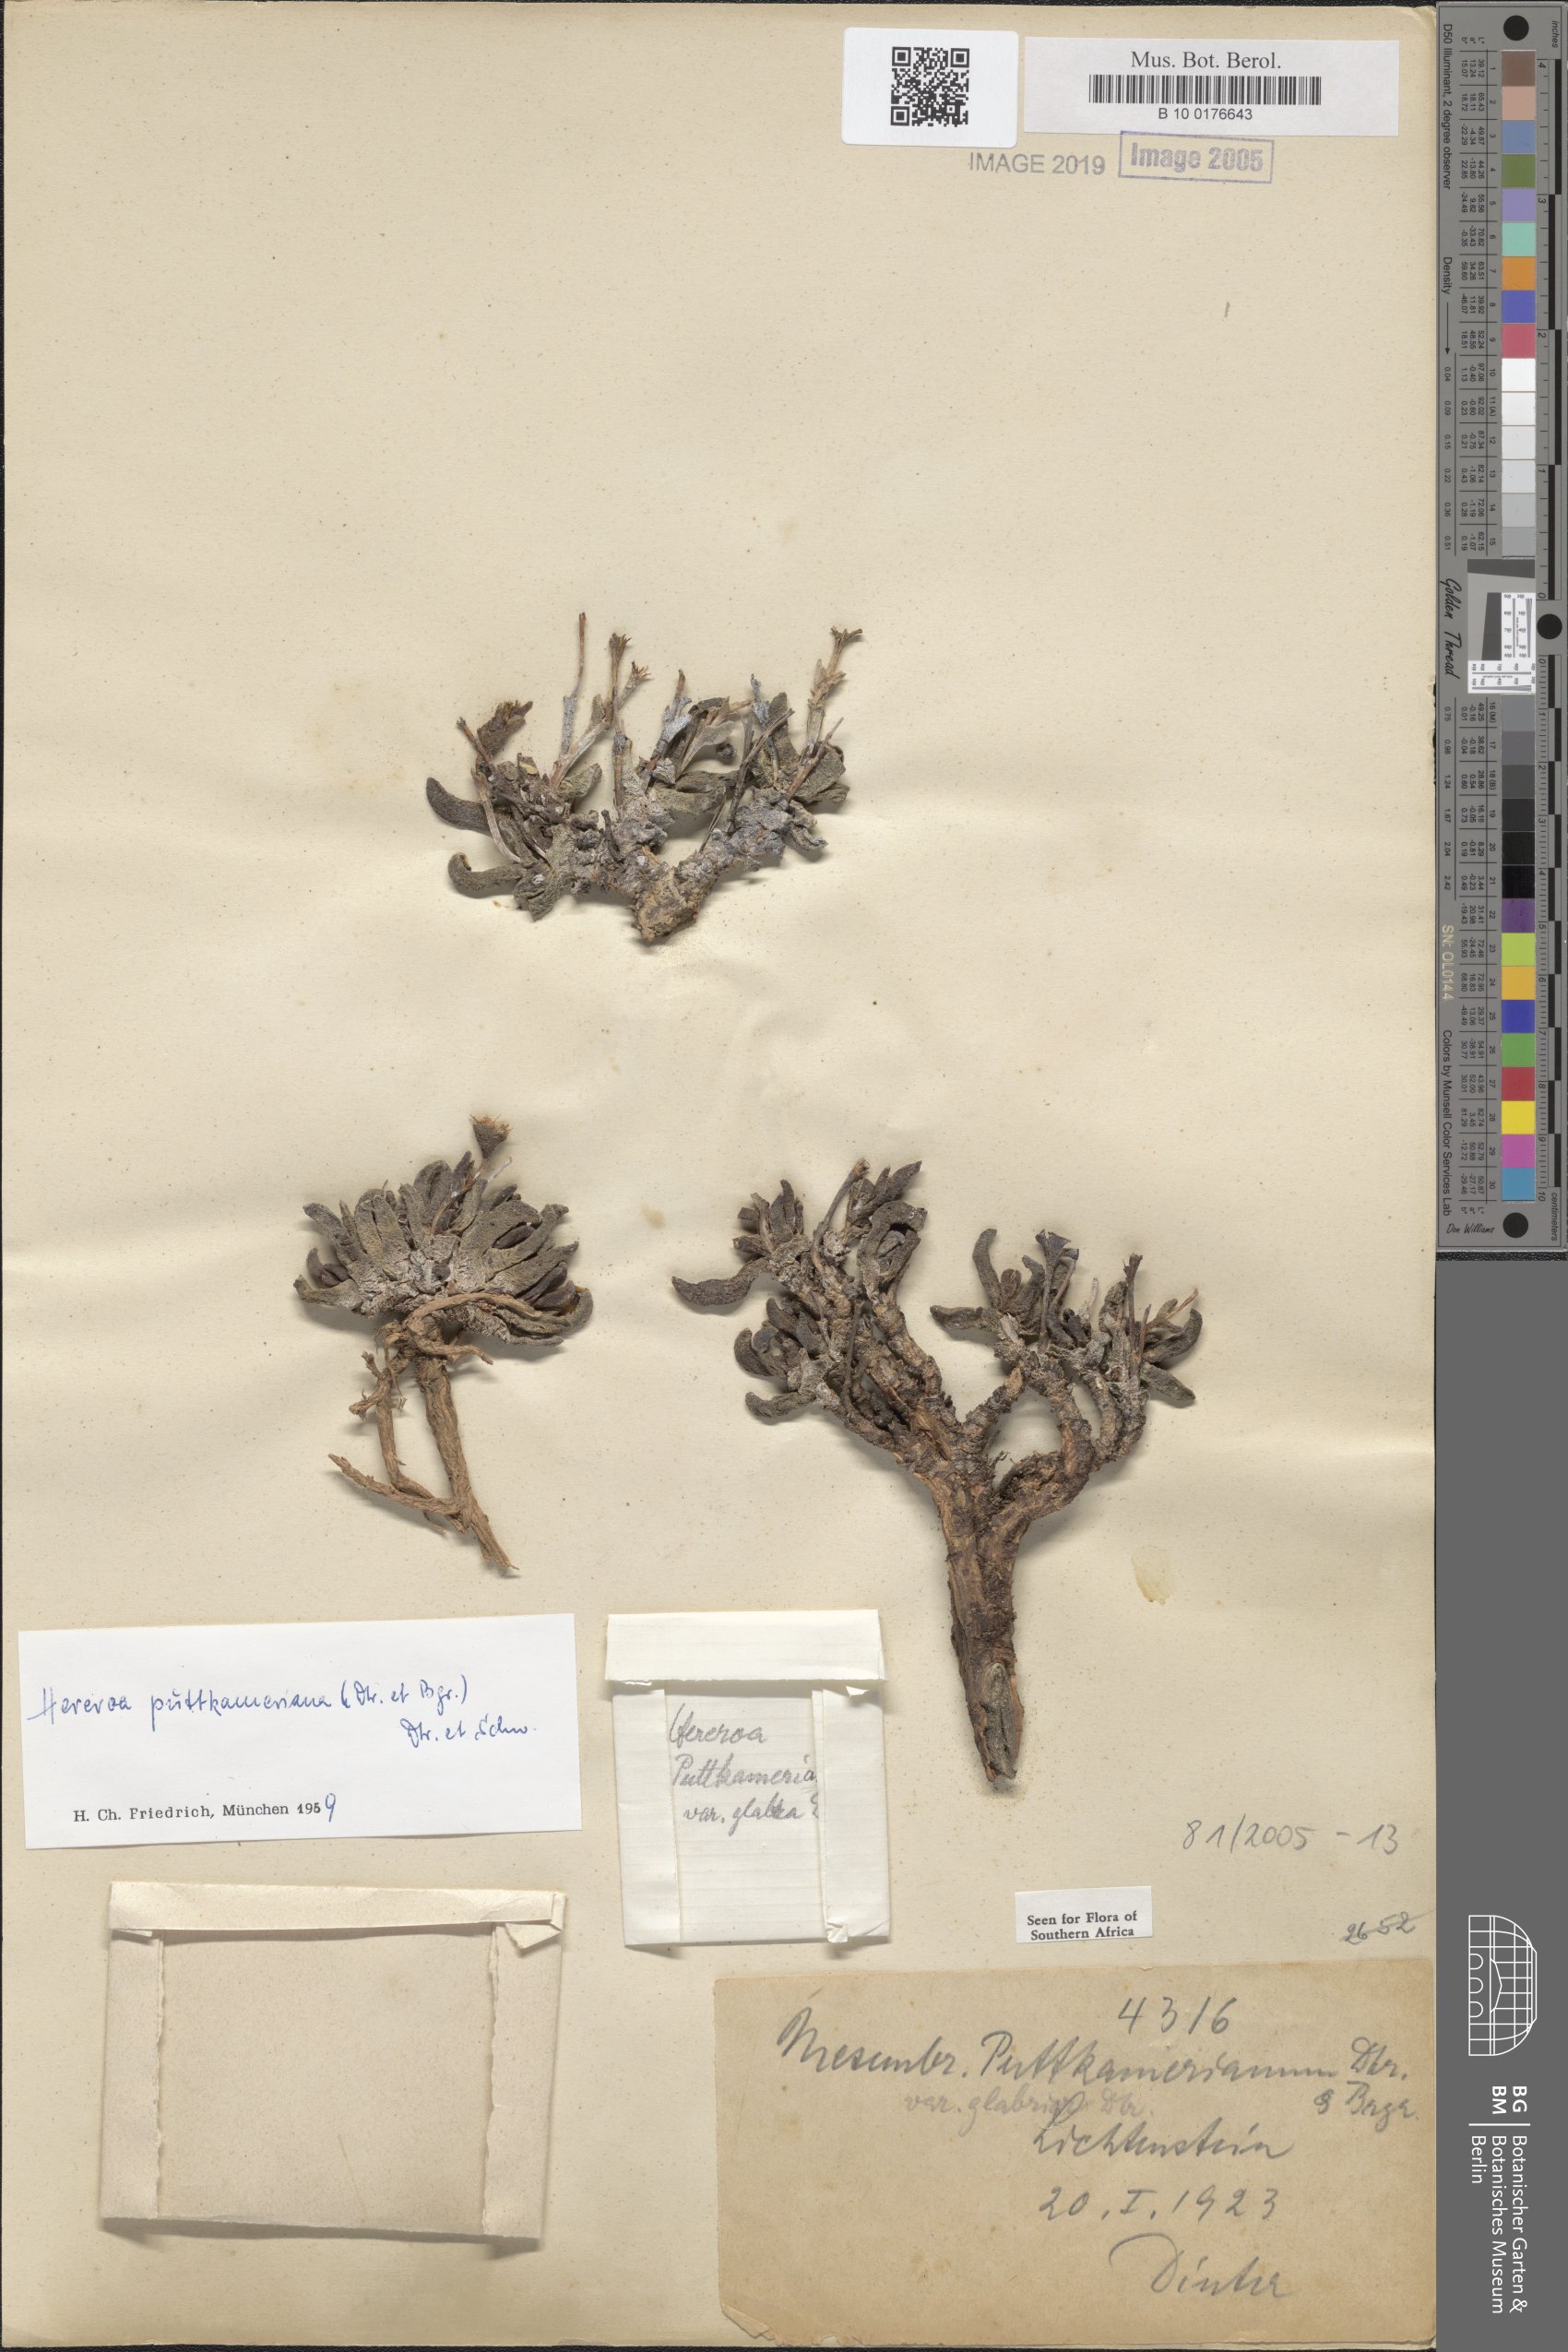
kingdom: Plantae
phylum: Tracheophyta
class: Magnoliopsida
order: Caryophyllales
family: Aizoaceae
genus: Dracophilus
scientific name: Dracophilus Hereroa puttkameriana
